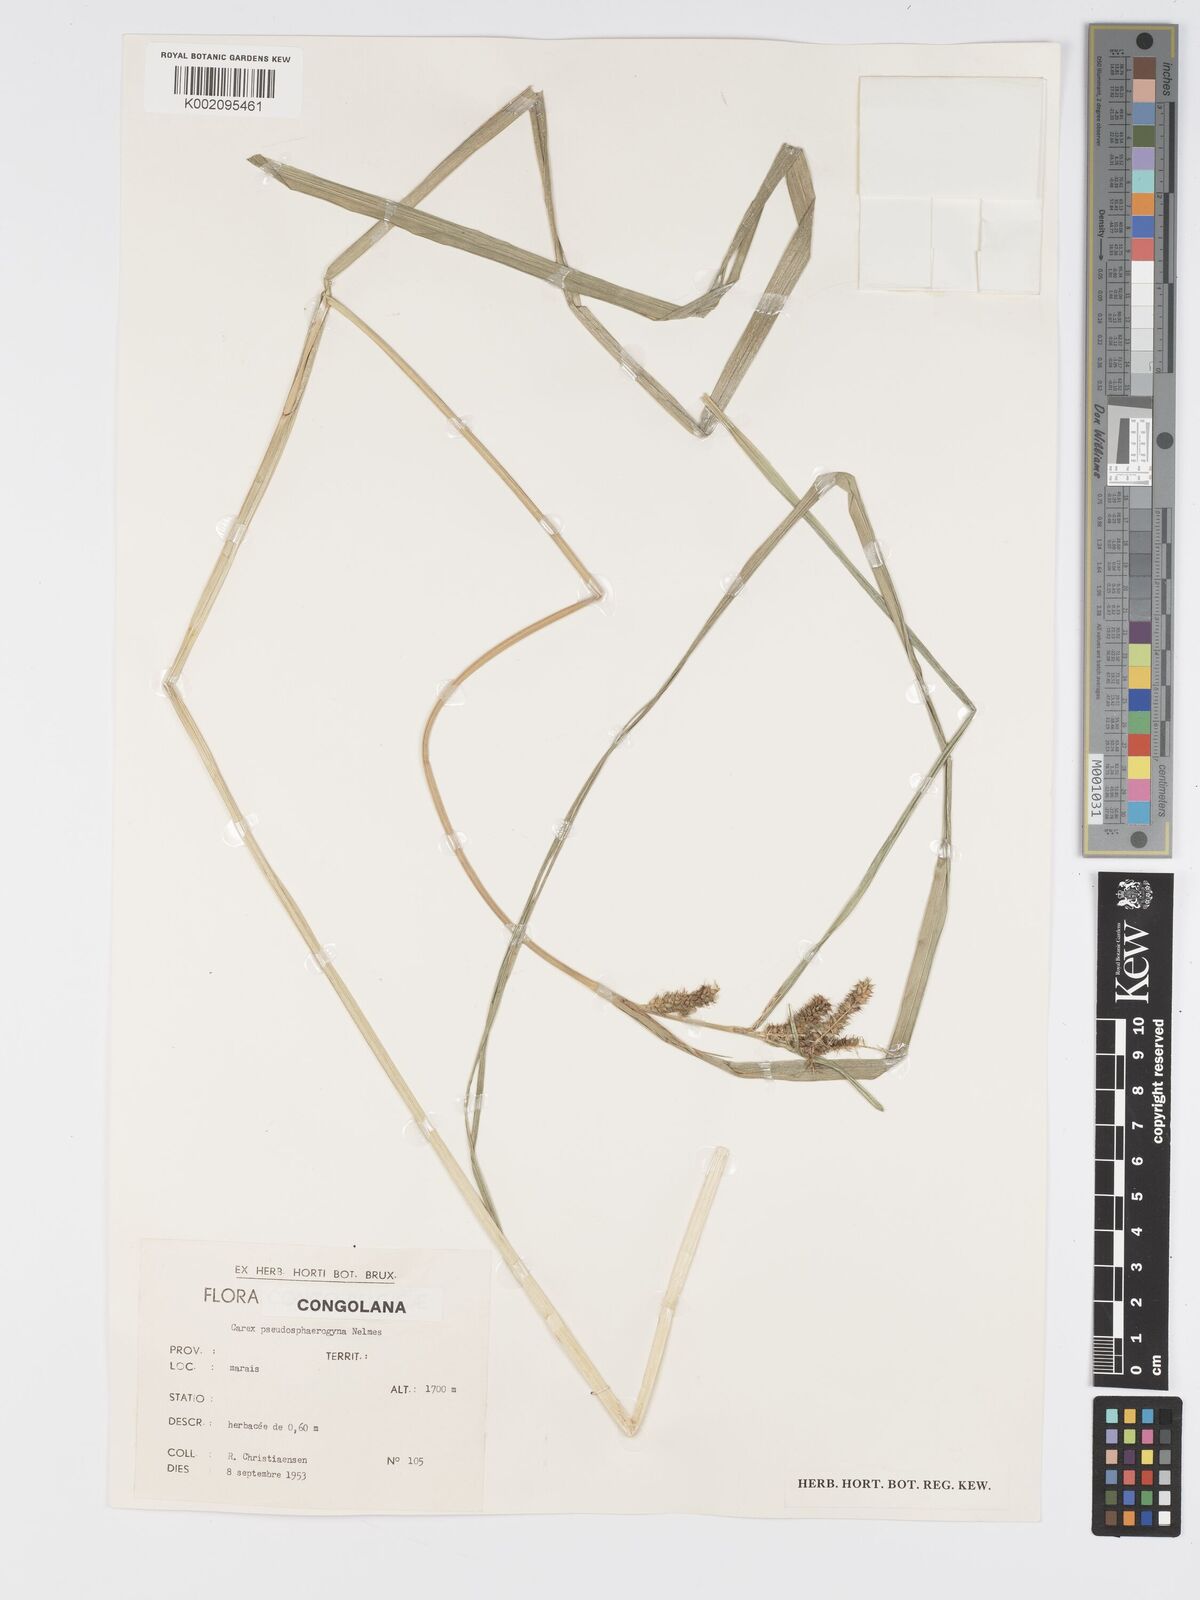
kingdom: Plantae
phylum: Tracheophyta
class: Liliopsida
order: Poales
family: Cyperaceae
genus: Carex
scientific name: Carex congolensis
